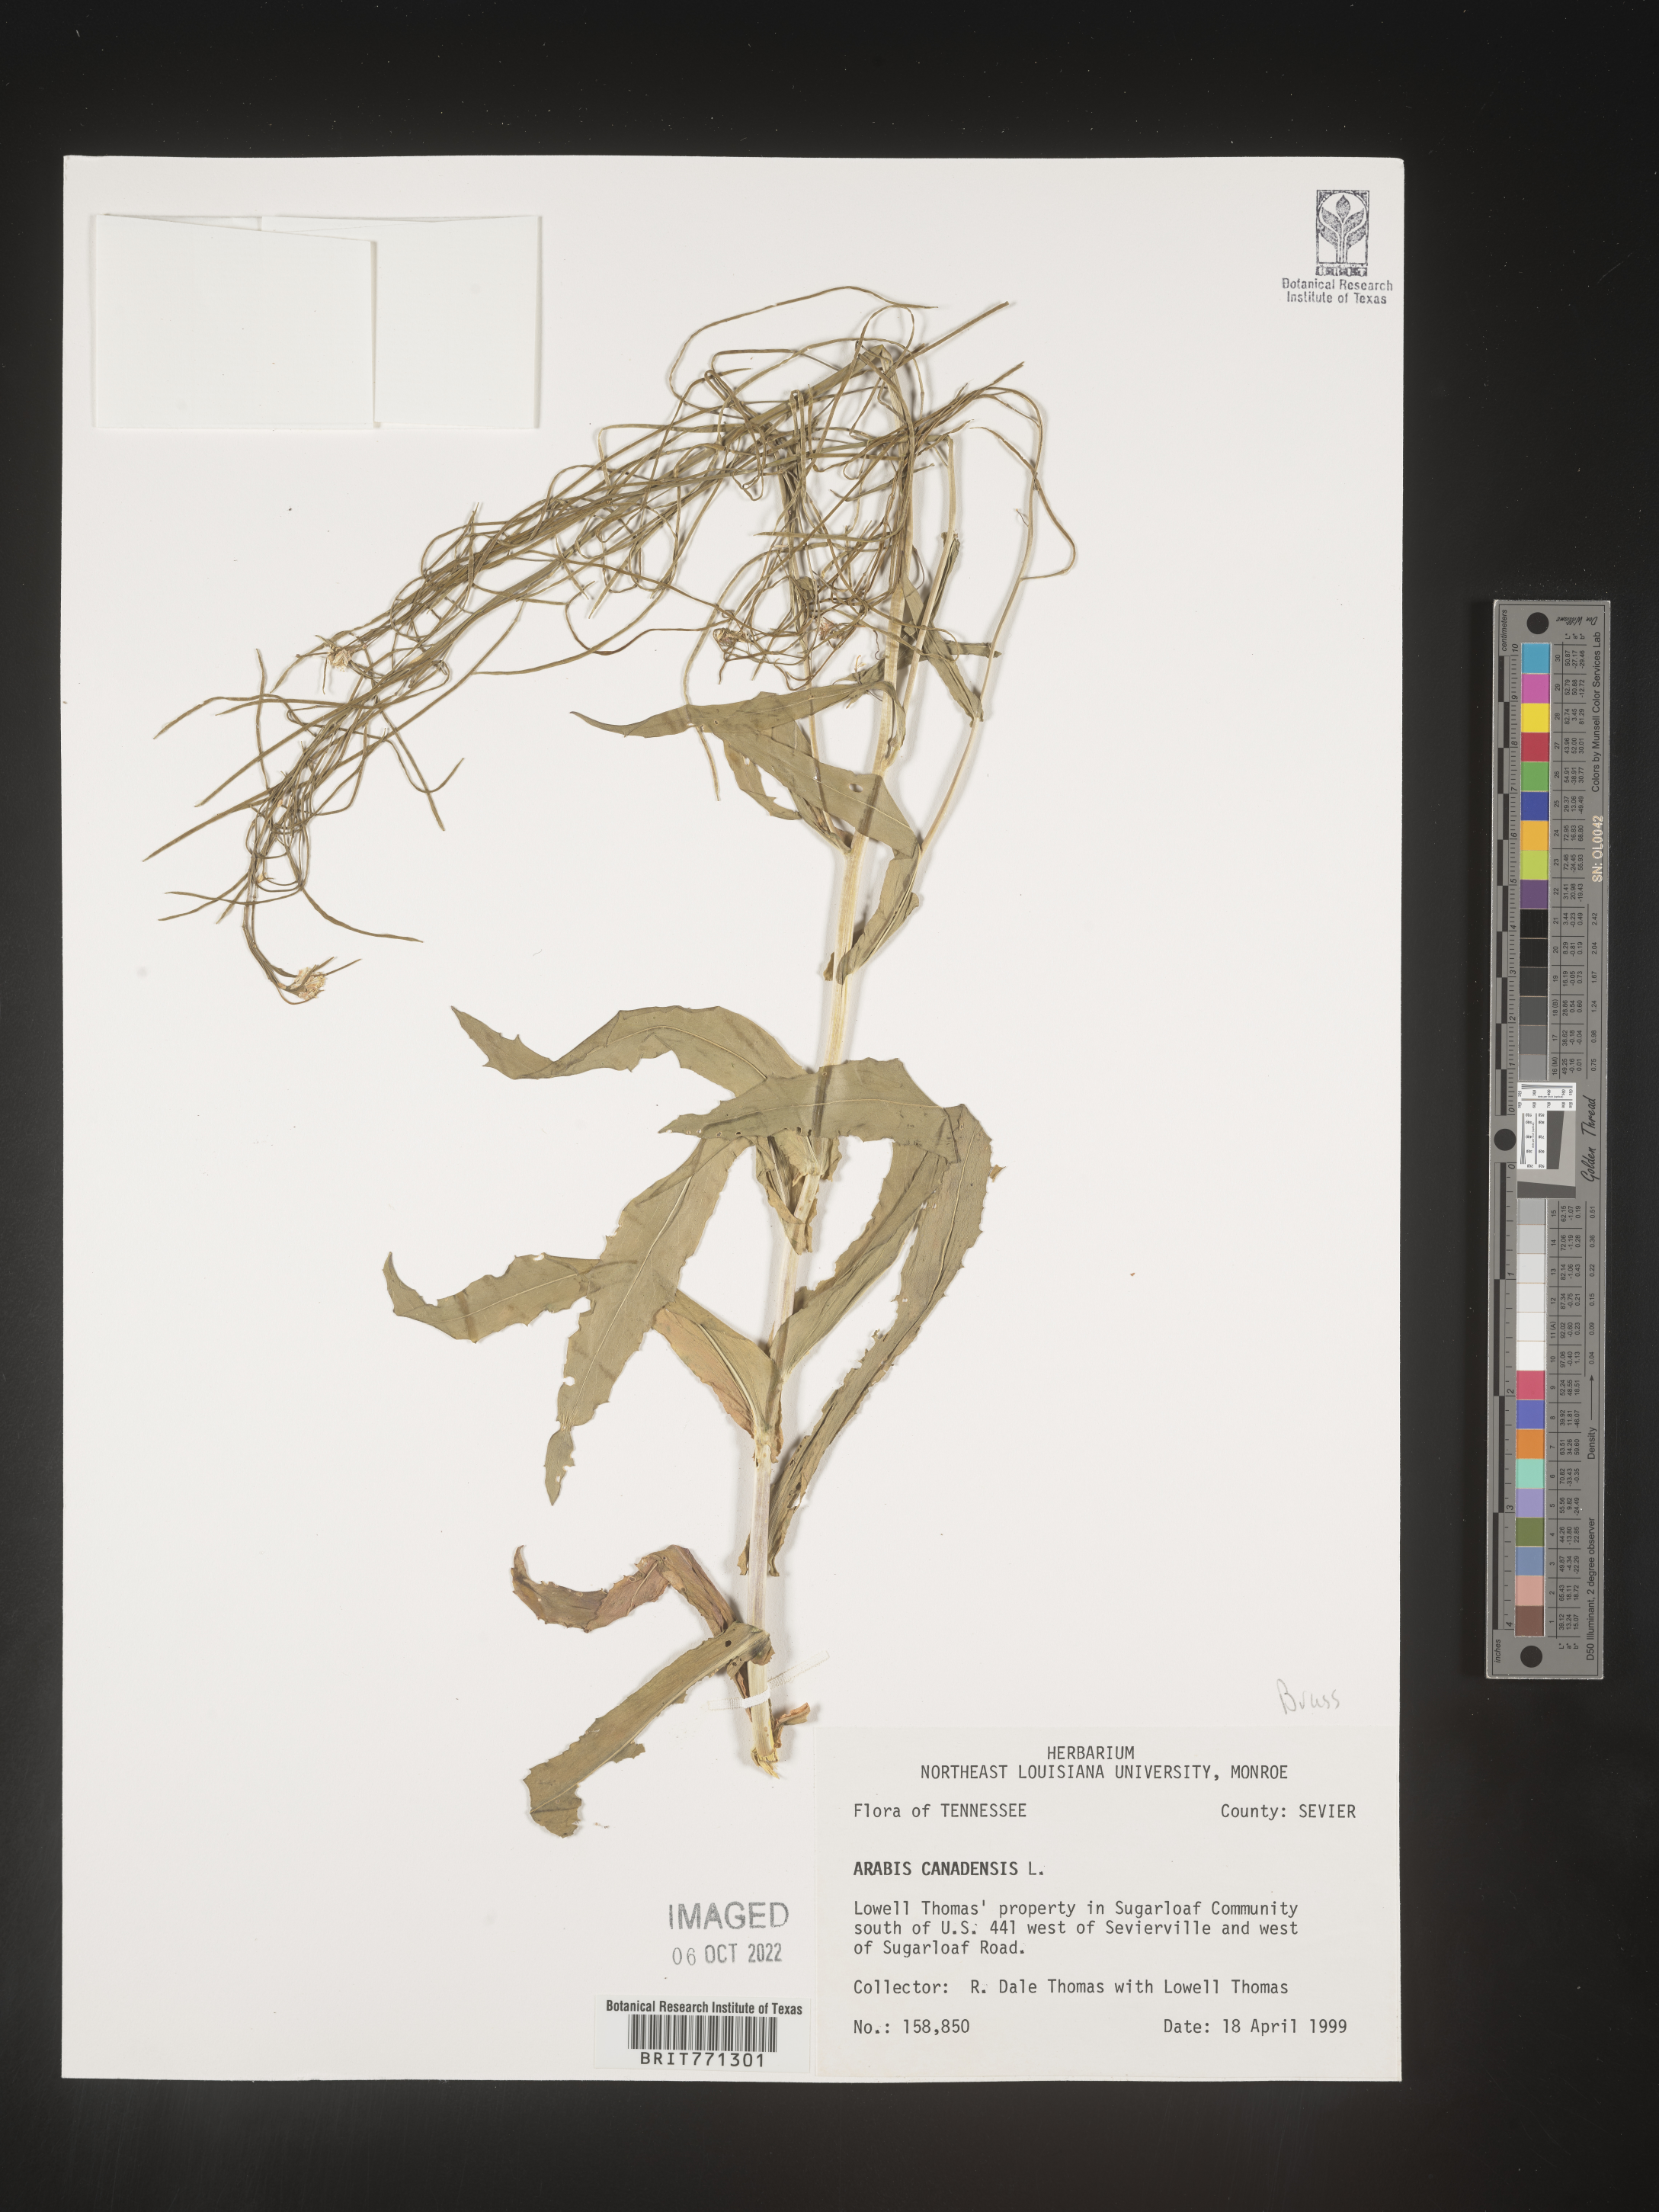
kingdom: Plantae
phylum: Tracheophyta
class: Magnoliopsida
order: Brassicales
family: Brassicaceae
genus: Borodinia
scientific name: Borodinia canadensis
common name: Sicklepod
